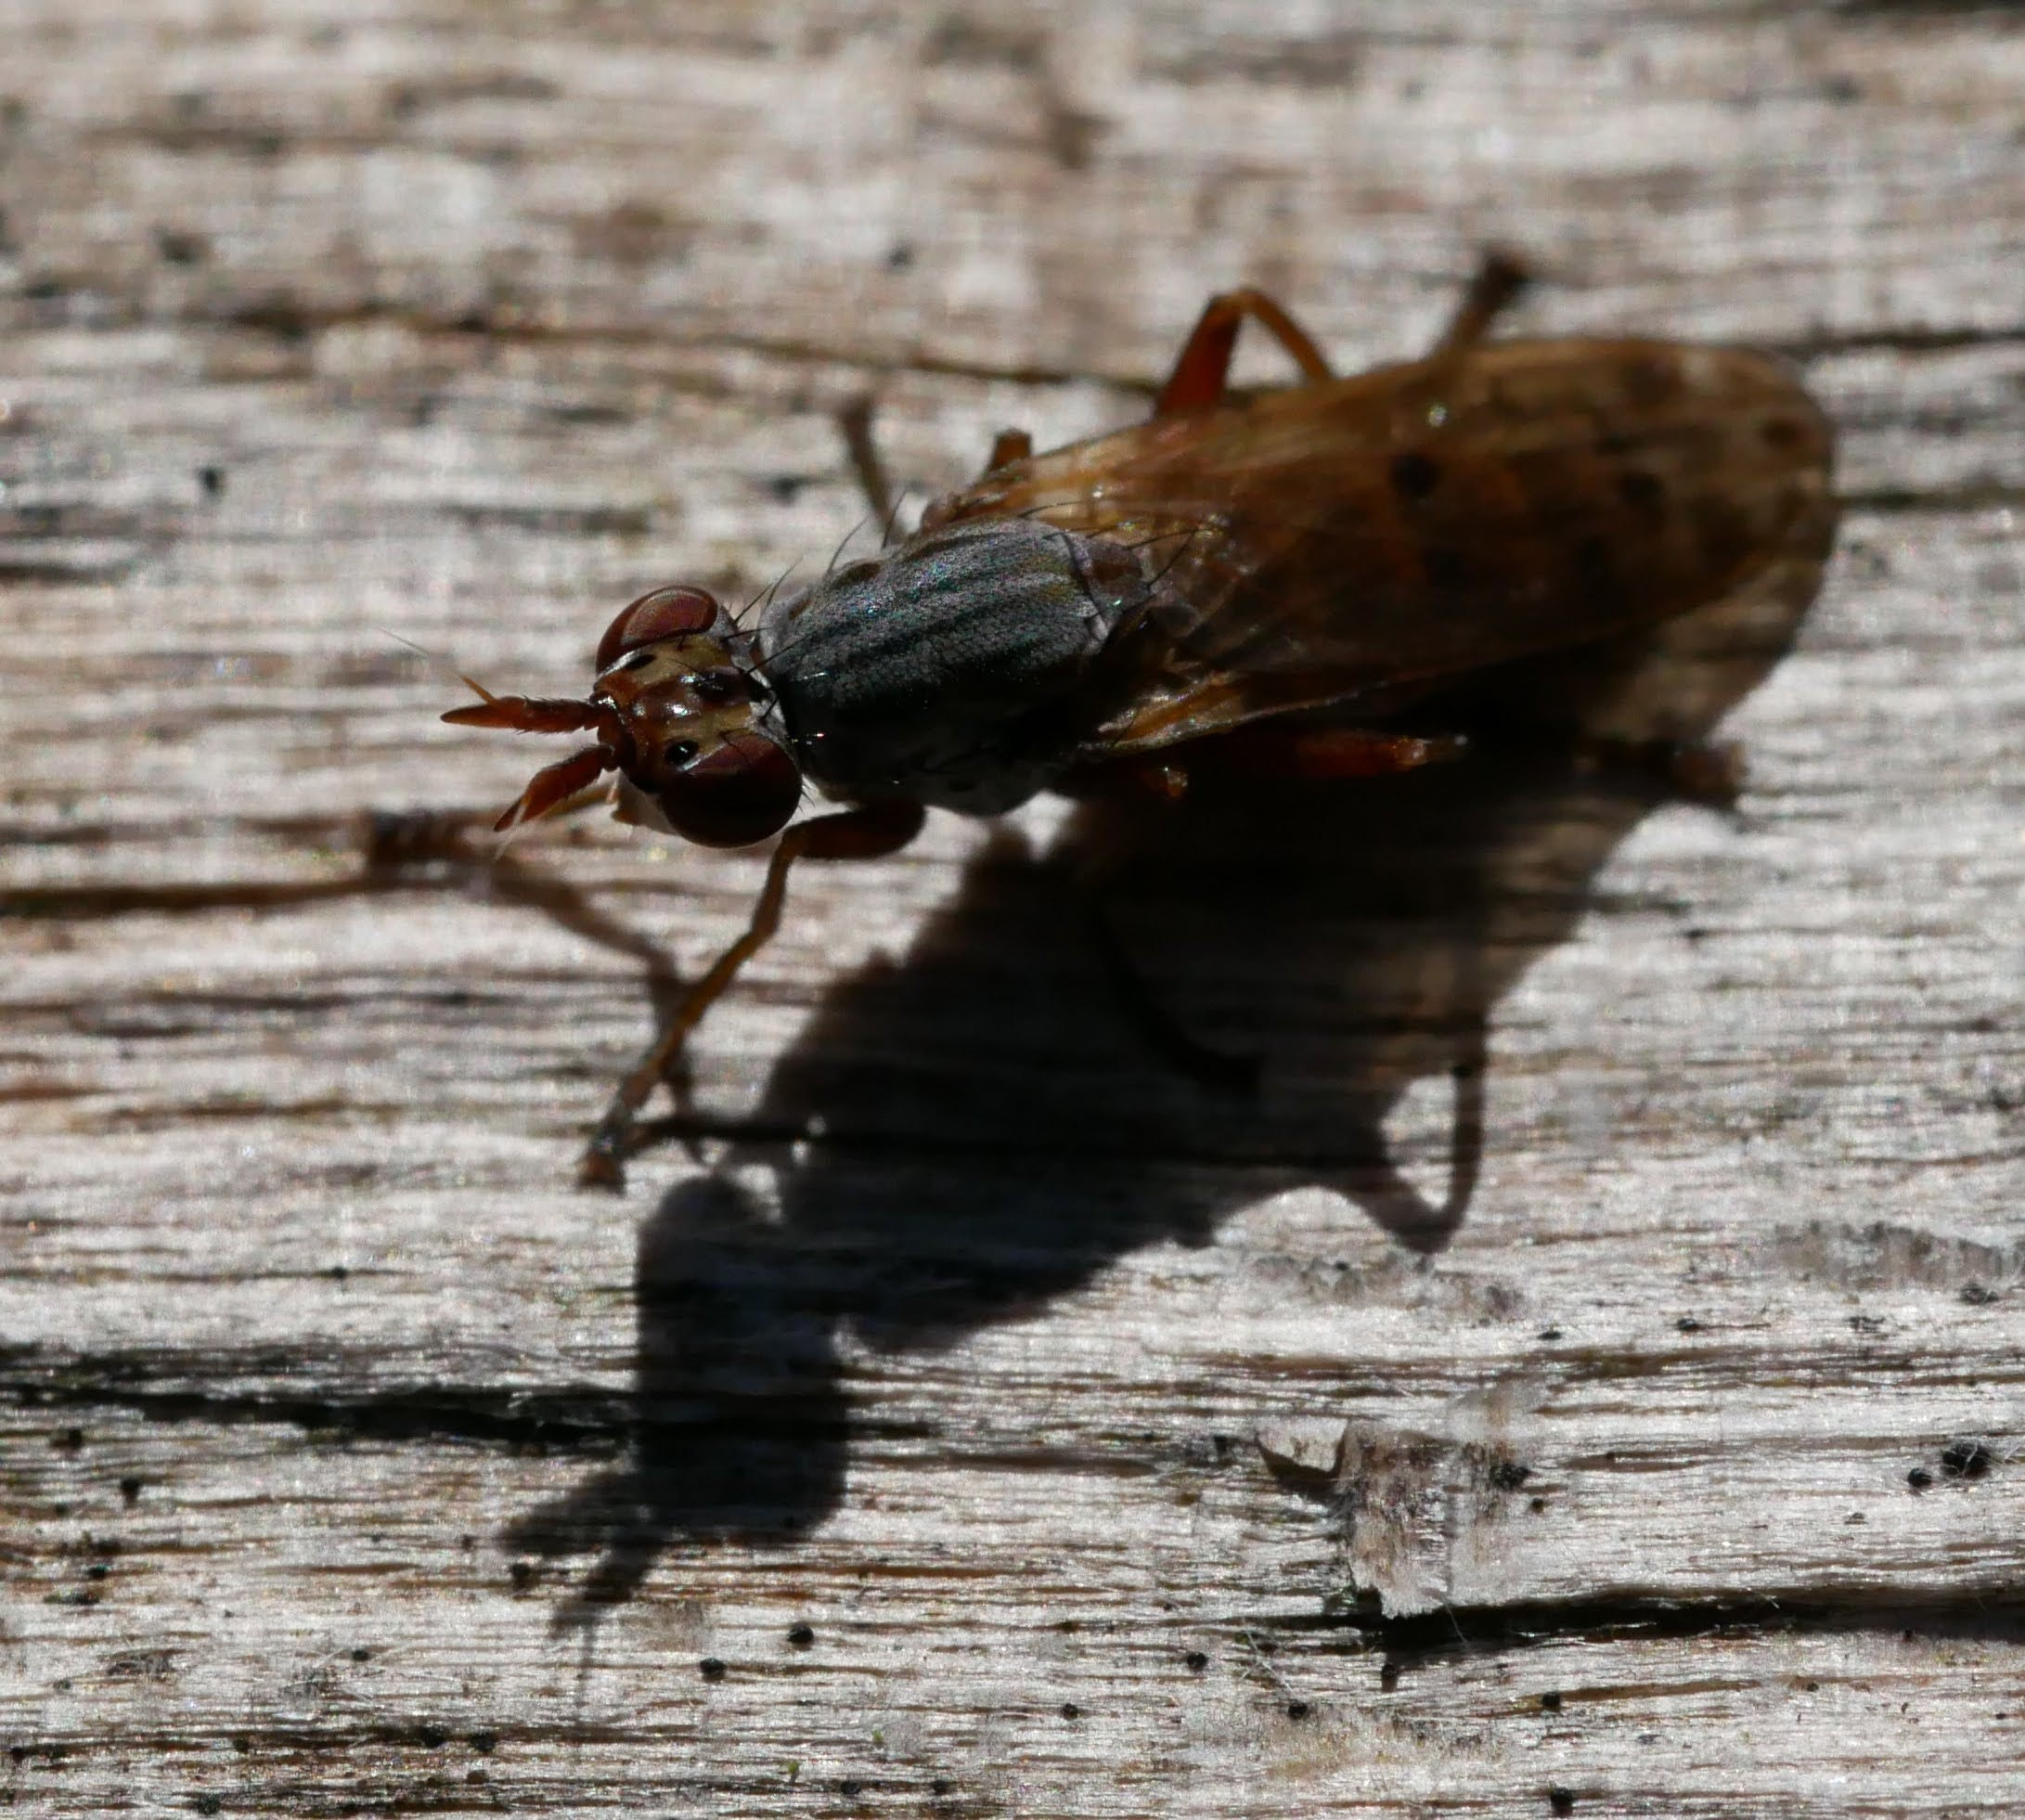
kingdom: Animalia
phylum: Arthropoda
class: Insecta
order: Diptera
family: Sciomyzidae
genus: Elgiva
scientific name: Elgiva cucularia
